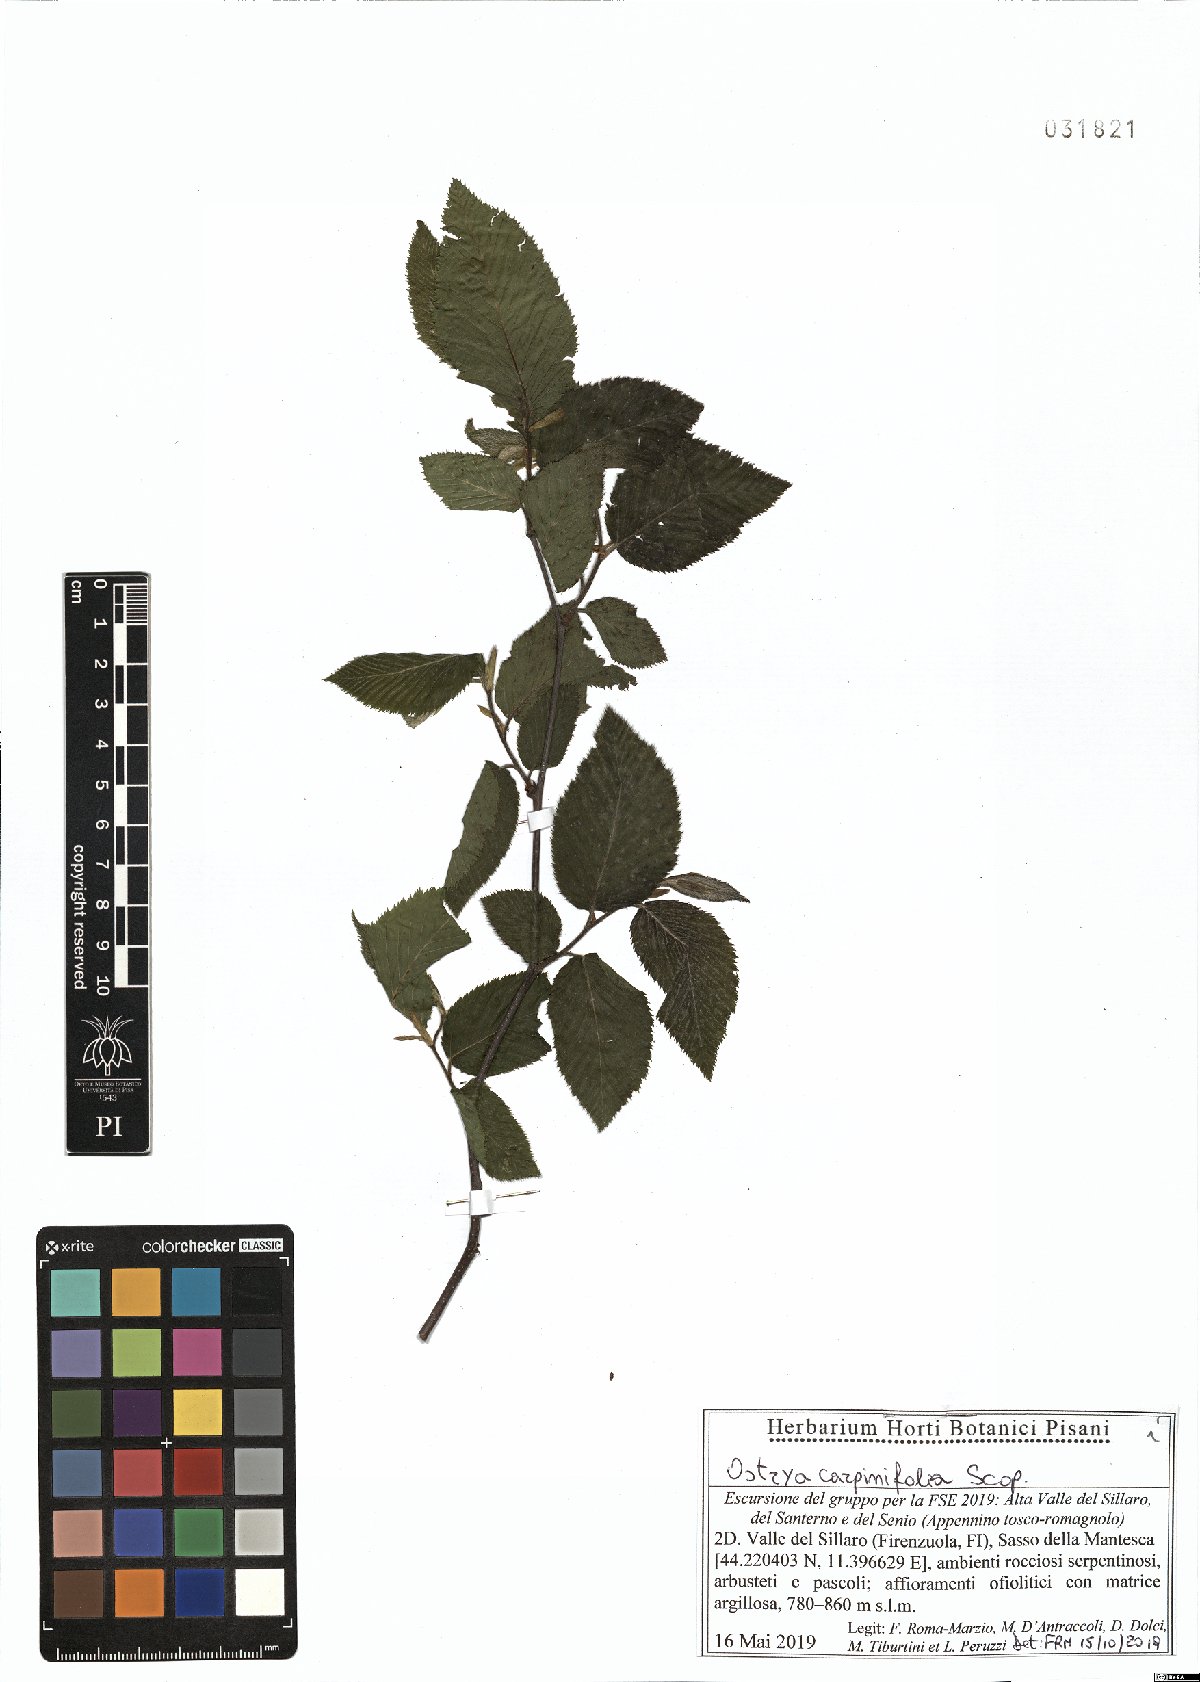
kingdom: Plantae
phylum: Tracheophyta
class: Magnoliopsida
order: Fagales
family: Betulaceae
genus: Ostrya
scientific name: Ostrya carpinifolia
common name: European hop-hornbeam
